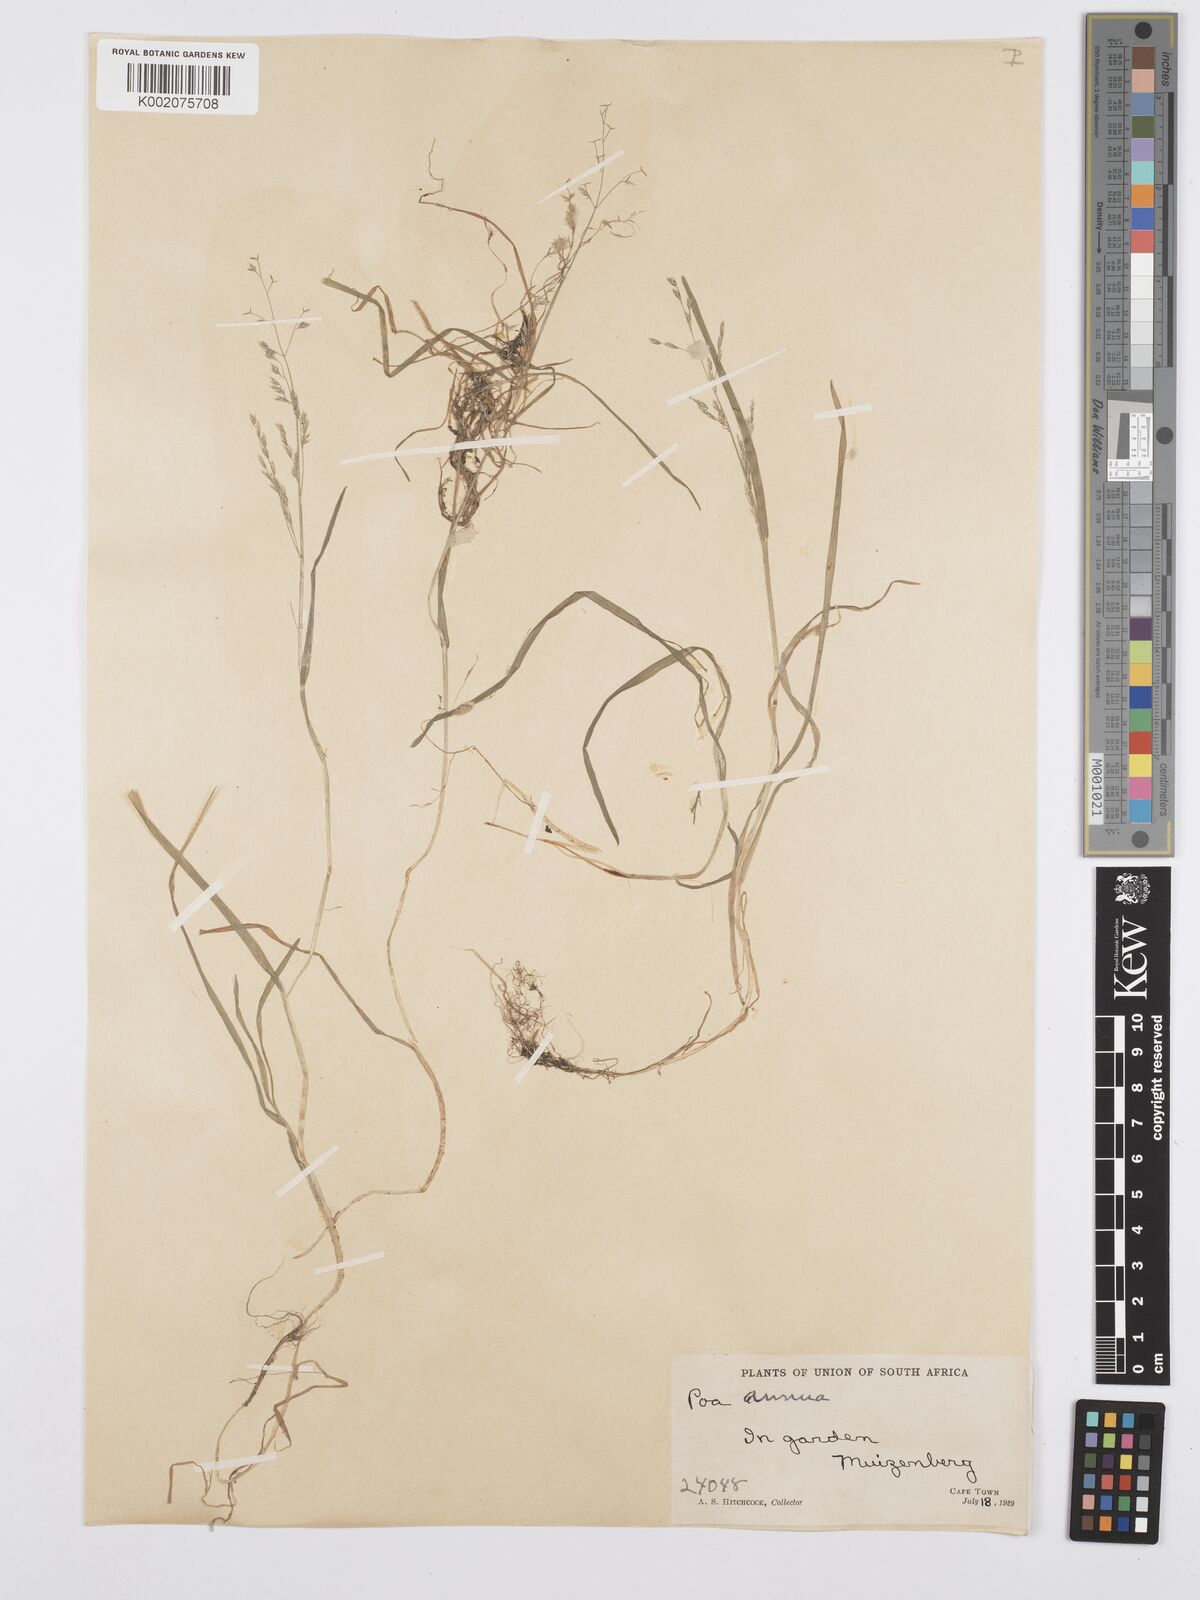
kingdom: Plantae
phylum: Tracheophyta
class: Liliopsida
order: Poales
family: Poaceae
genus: Poa
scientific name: Poa annua
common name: Annual bluegrass
